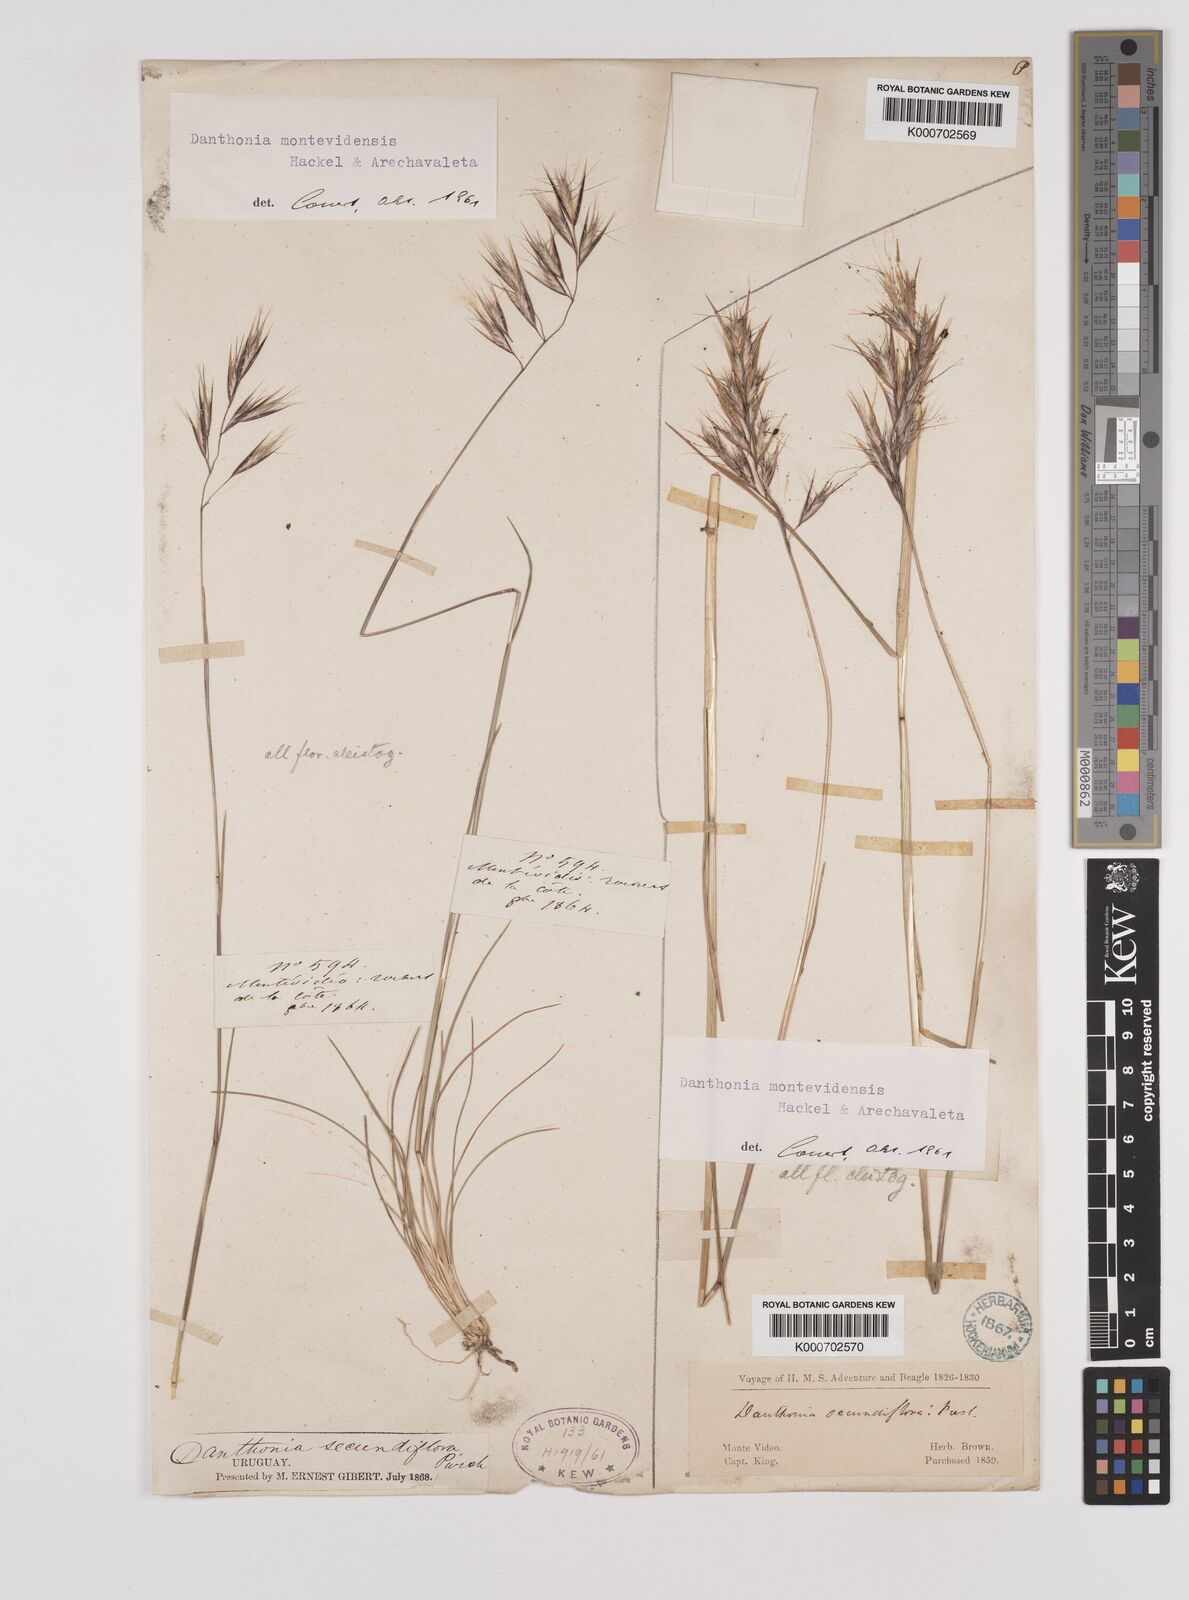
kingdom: Plantae
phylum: Tracheophyta
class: Liliopsida
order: Poales
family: Poaceae
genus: Danthonia
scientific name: Danthonia montevidensis
